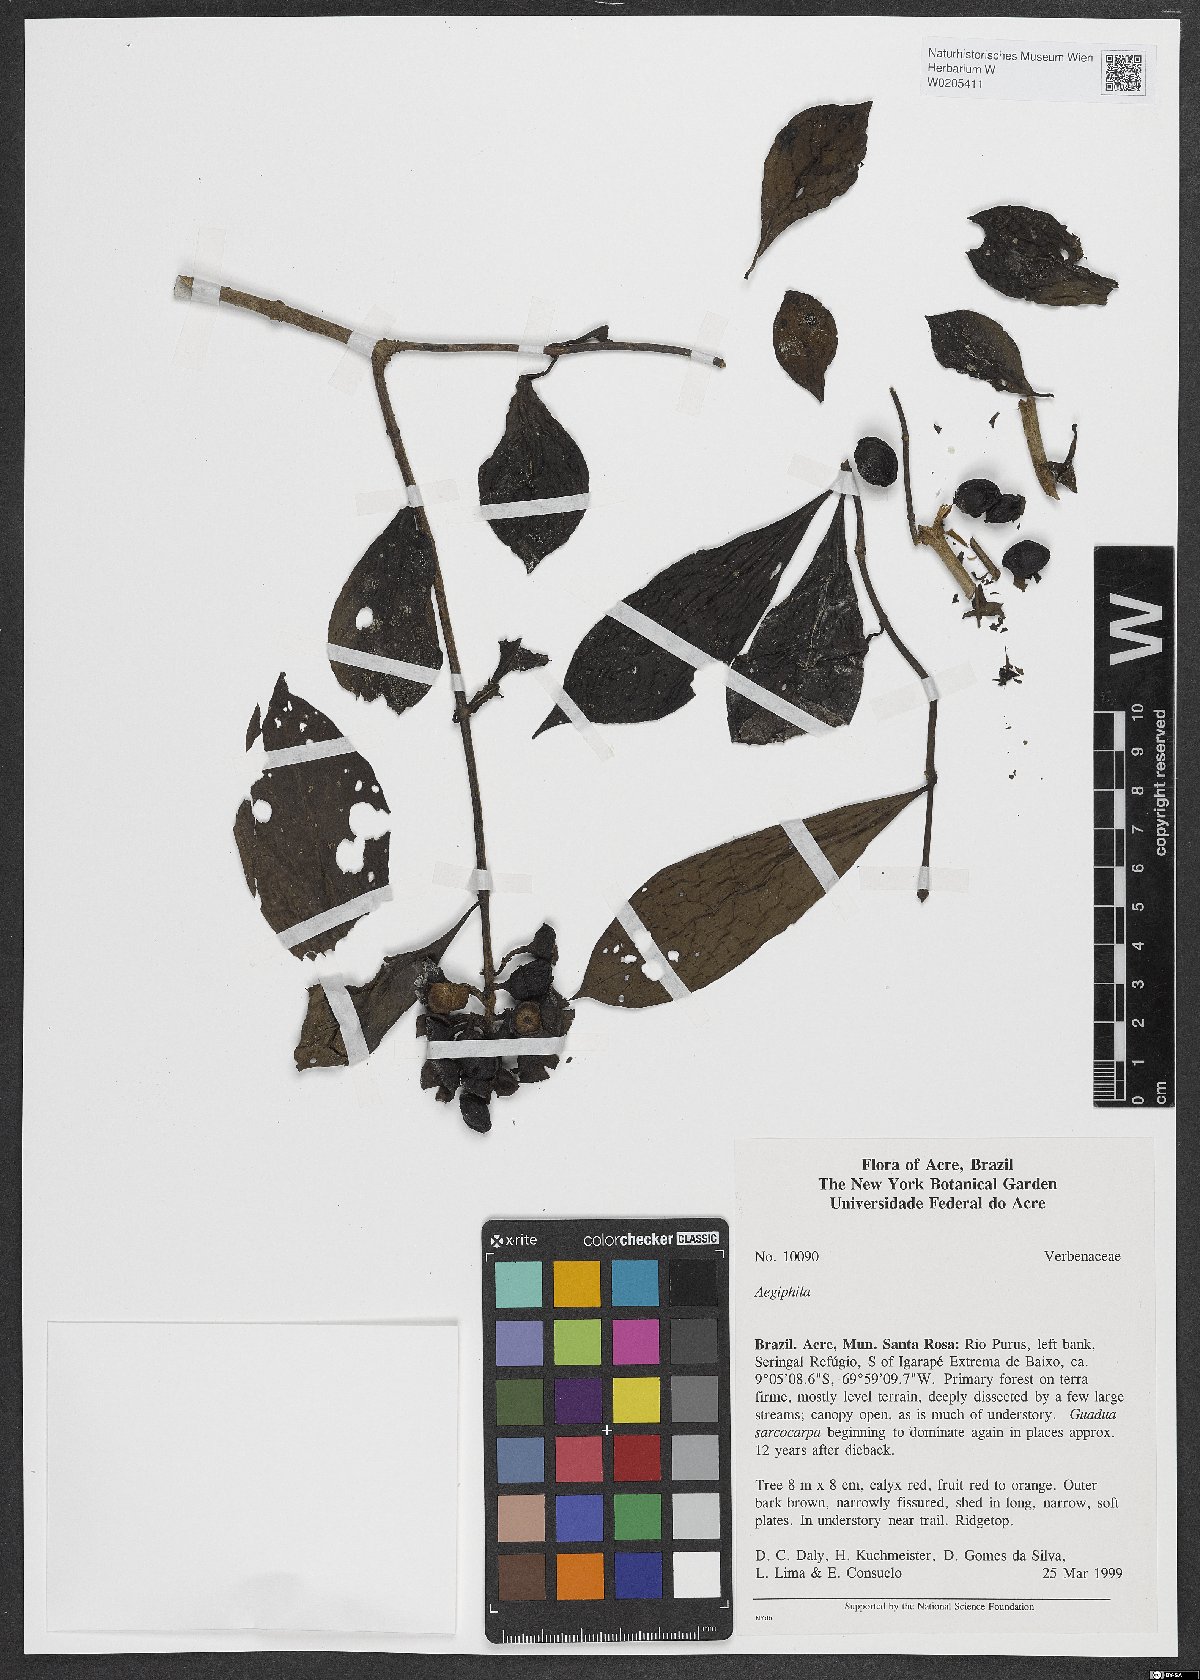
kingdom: Plantae
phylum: Tracheophyta
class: Magnoliopsida
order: Lamiales
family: Lamiaceae
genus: Aegiphila
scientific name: Aegiphila
